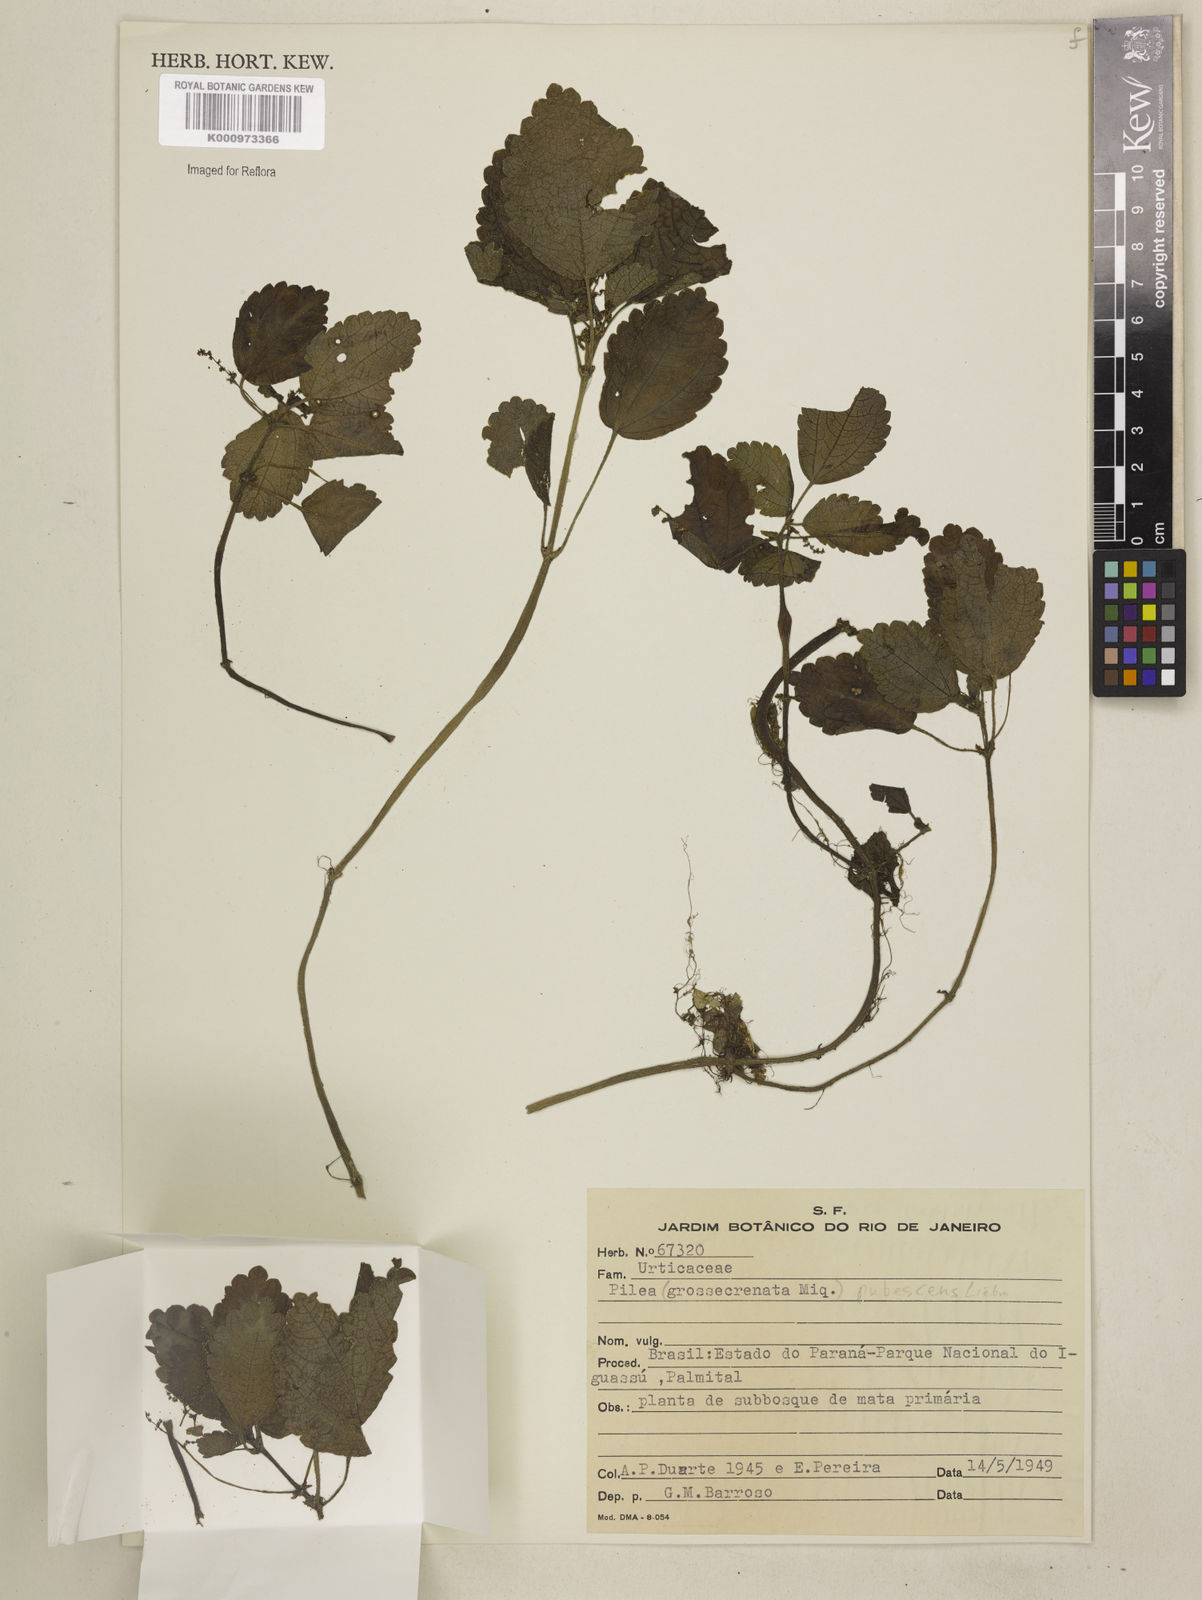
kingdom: Plantae
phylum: Tracheophyta
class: Magnoliopsida
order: Rosales
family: Urticaceae
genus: Pilea
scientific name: Pilea
